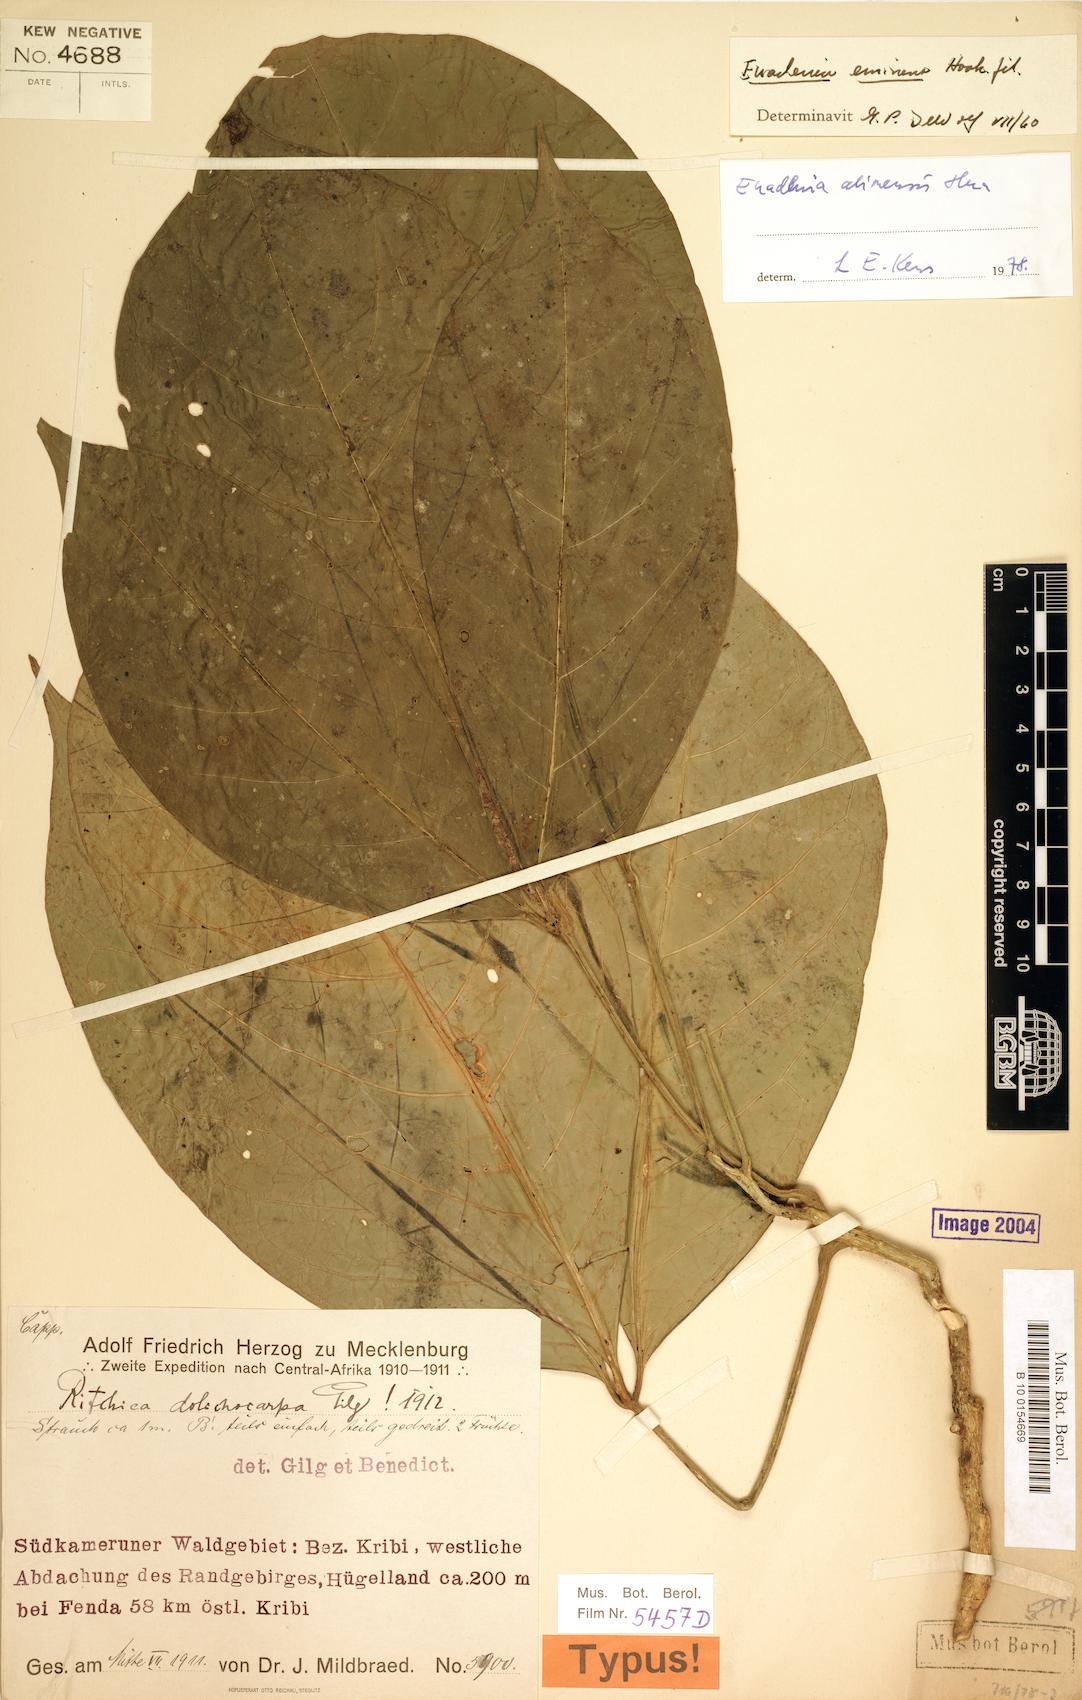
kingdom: Plantae
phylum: Tracheophyta
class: Magnoliopsida
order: Brassicales
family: Capparaceae
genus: Euadenia
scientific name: Euadenia eminens
